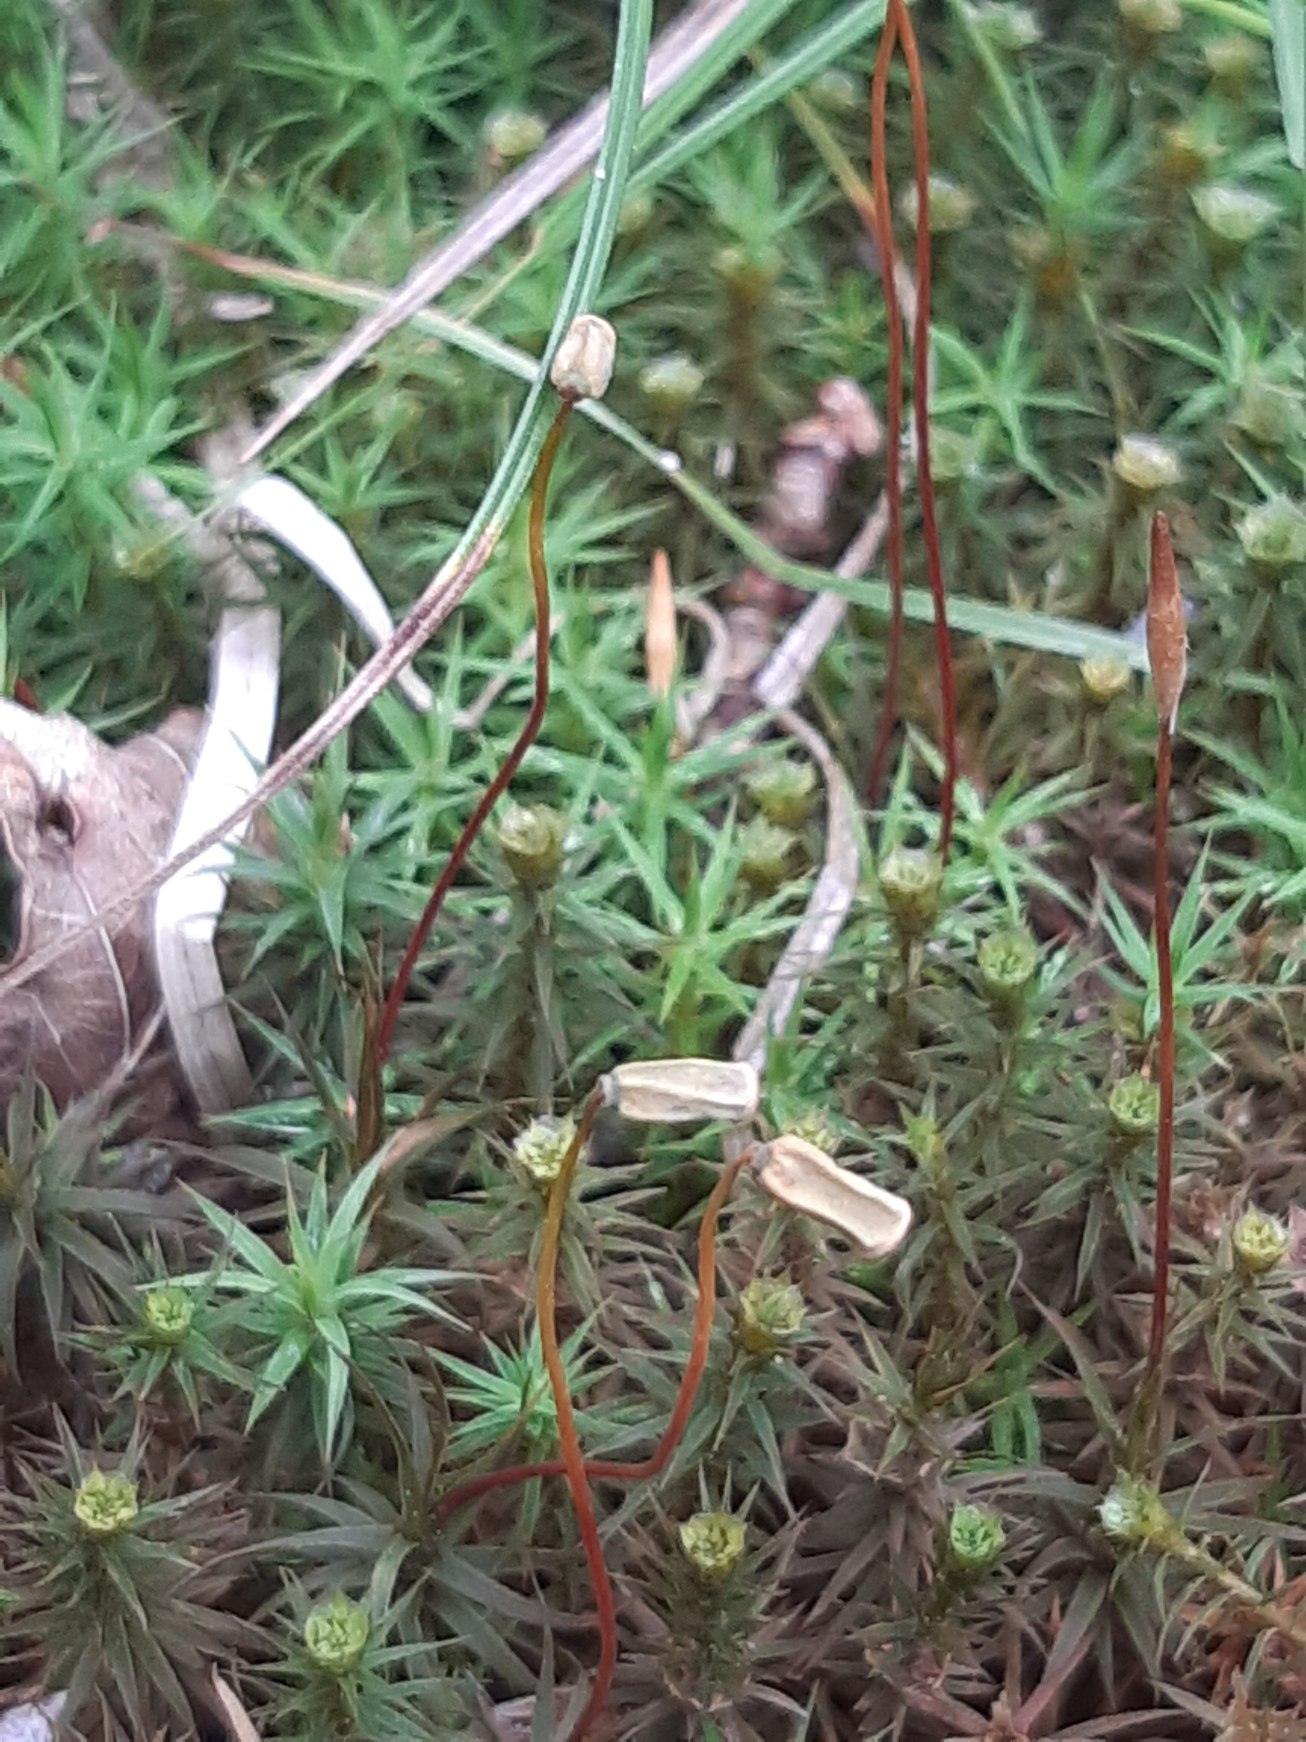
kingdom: Plantae
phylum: Bryophyta
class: Polytrichopsida
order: Polytrichales
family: Polytrichaceae
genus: Polytrichum
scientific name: Polytrichum formosum
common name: Skov-jomfruhår
